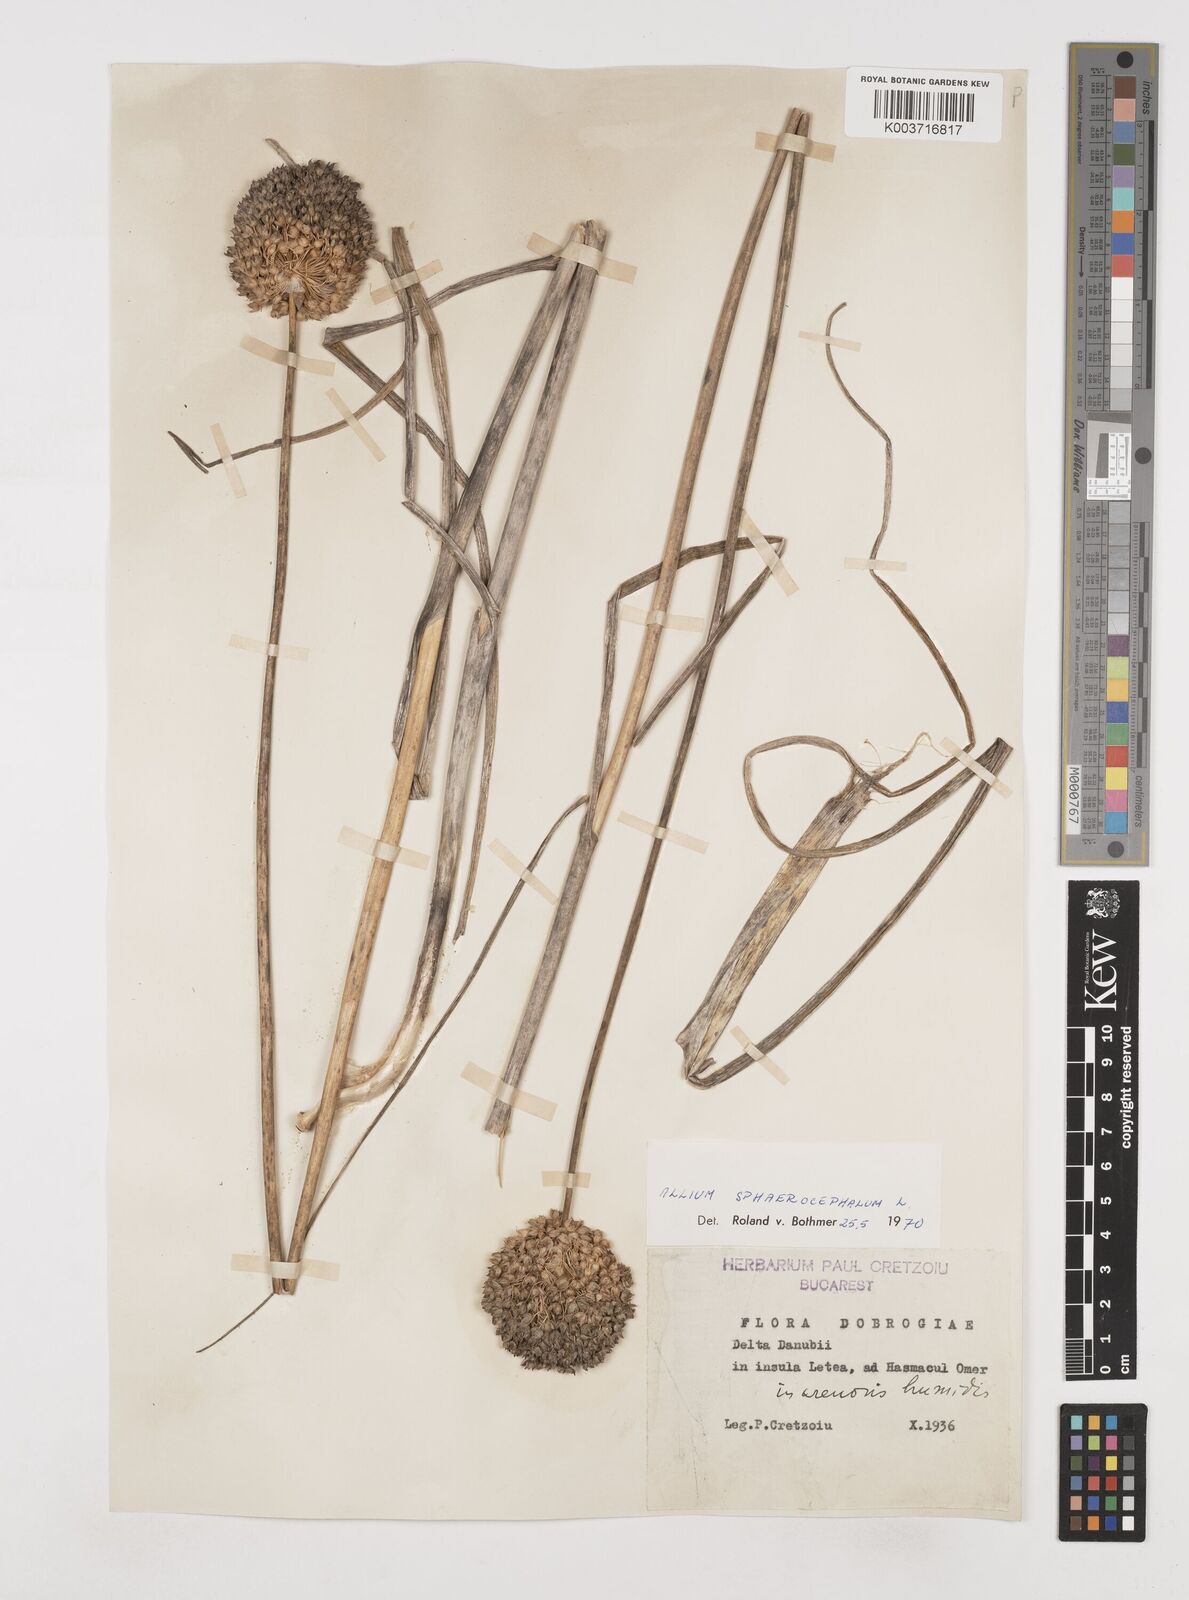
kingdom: Plantae
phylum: Tracheophyta
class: Liliopsida
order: Asparagales
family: Amaryllidaceae
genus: Allium
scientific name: Allium sphaerocephalon
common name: Round-headed leek
